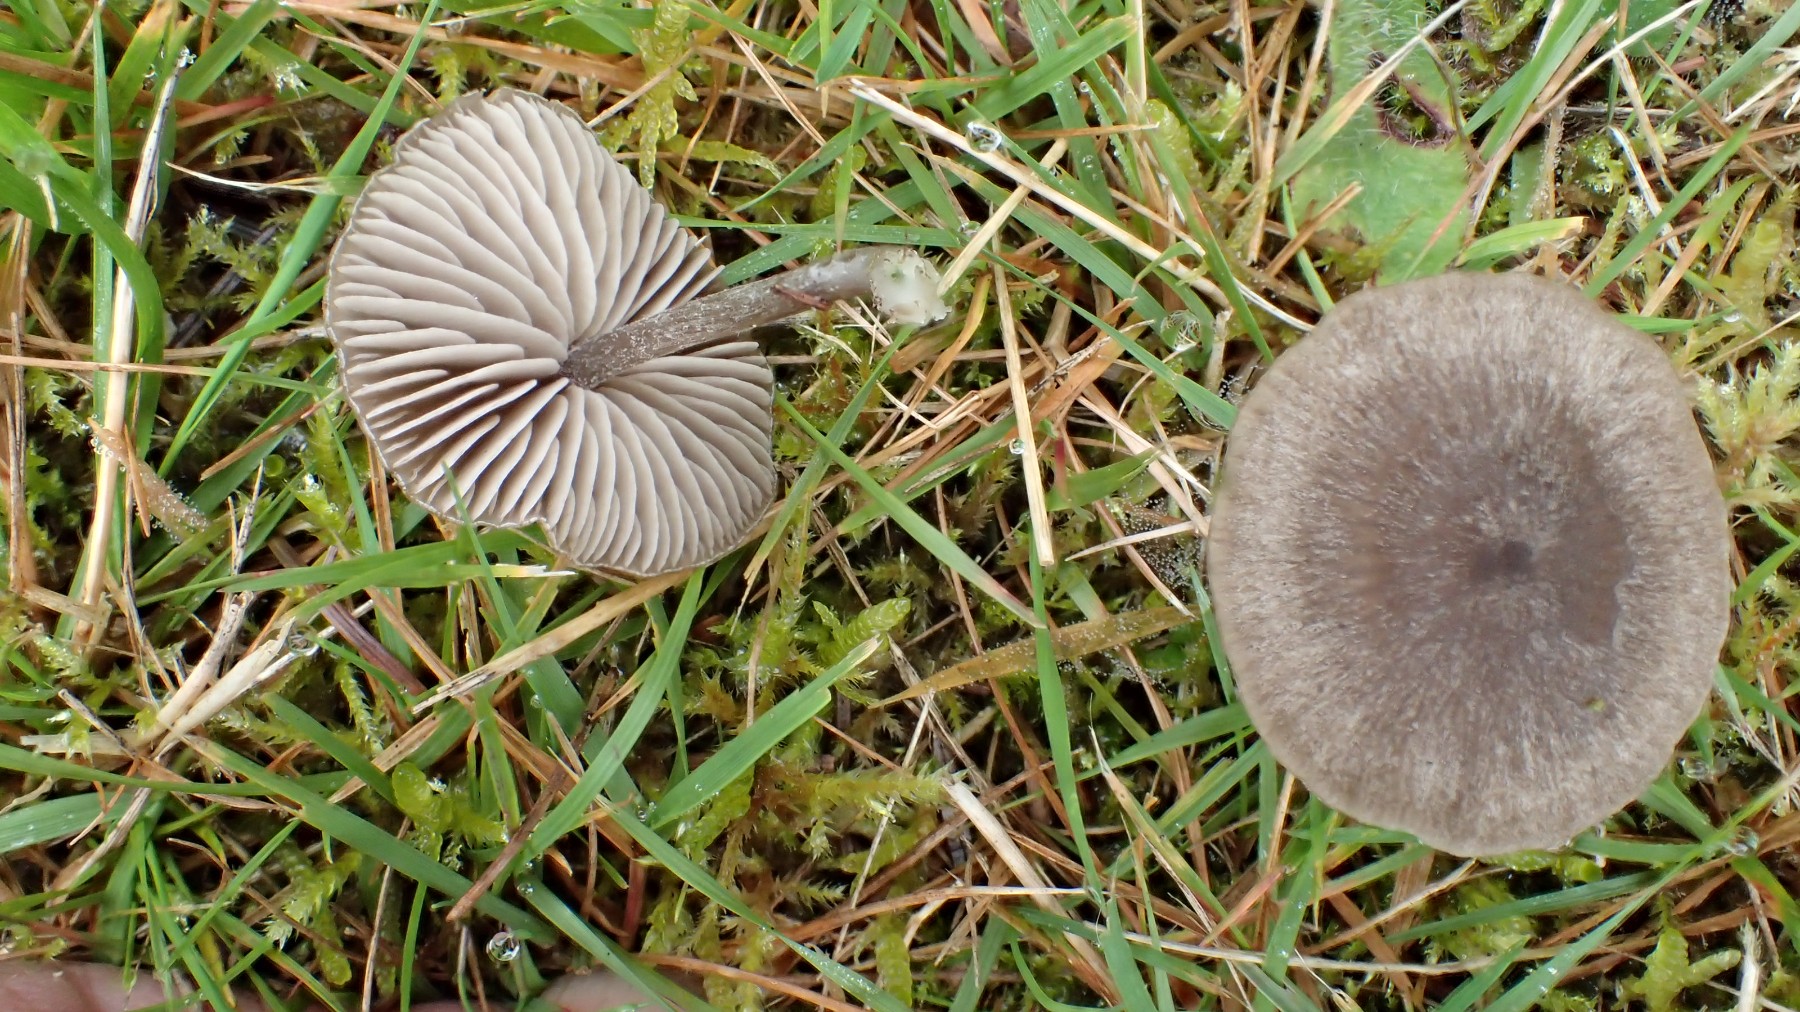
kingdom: Fungi
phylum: Basidiomycota
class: Agaricomycetes
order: Agaricales
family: Entolomataceae
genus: Entoloma
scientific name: Entoloma
